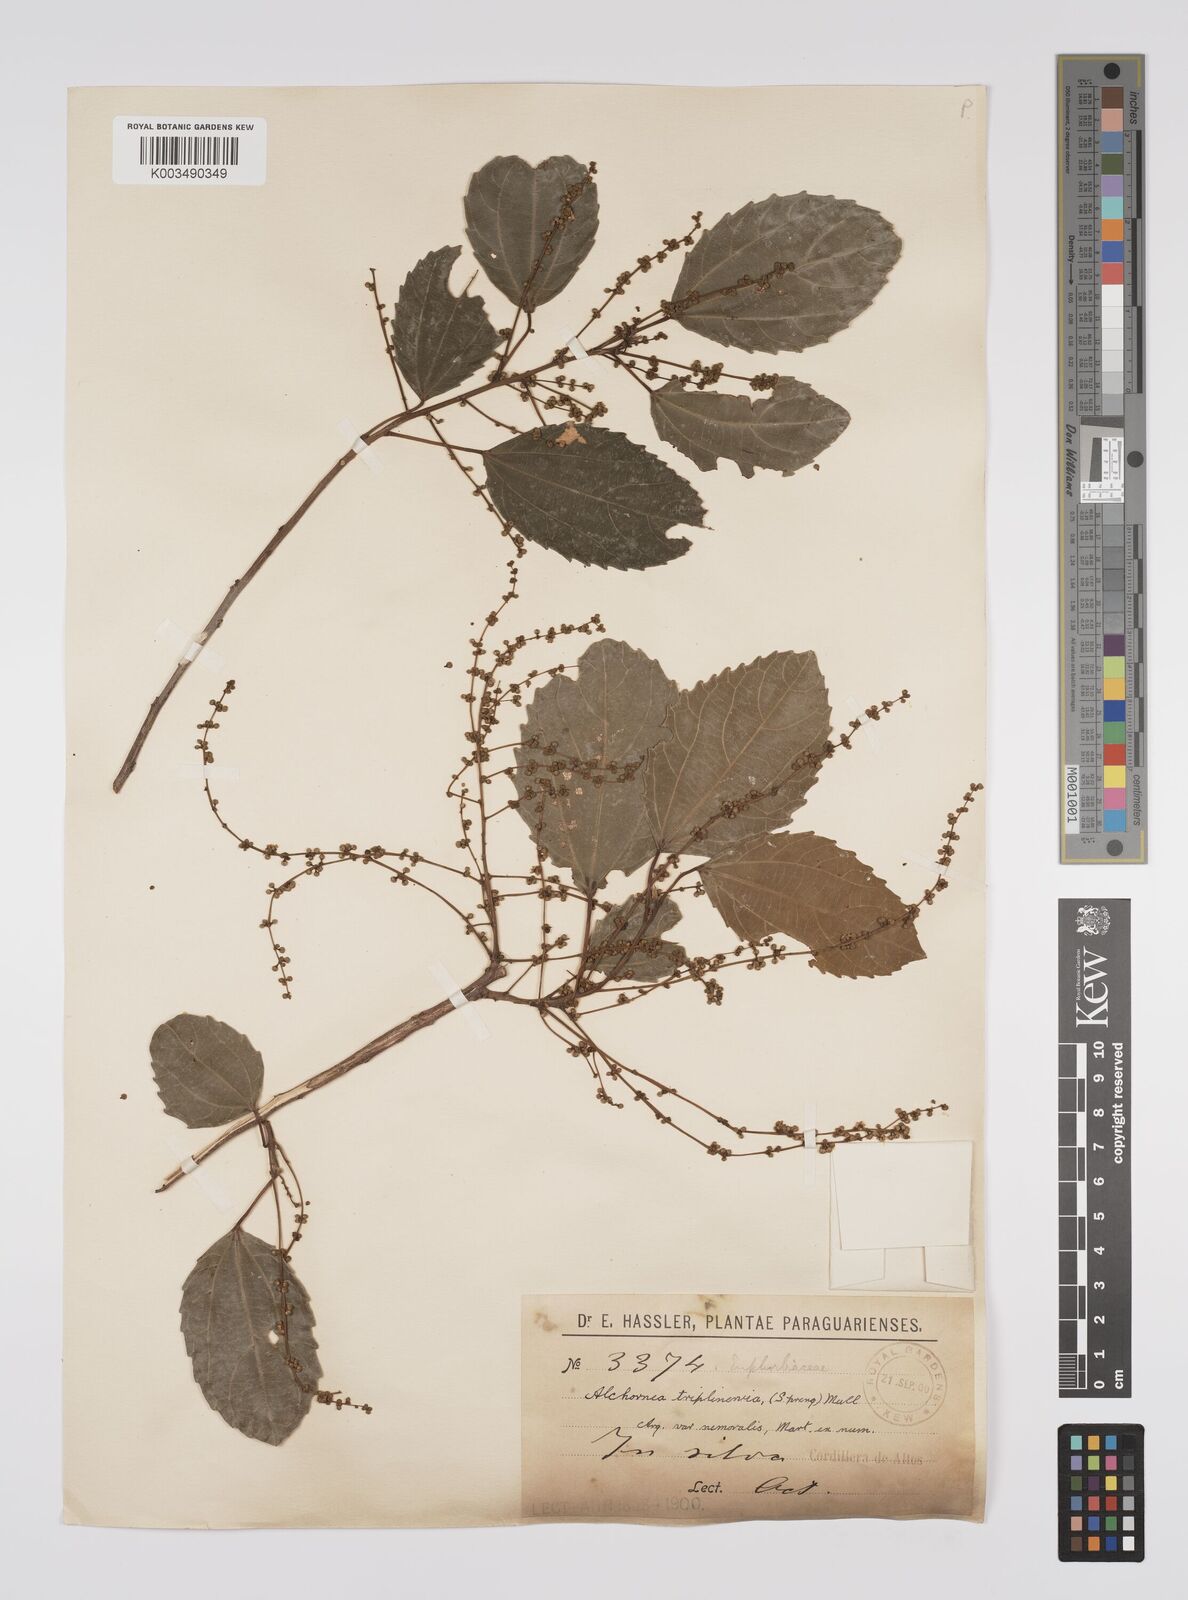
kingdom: Plantae
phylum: Tracheophyta
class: Magnoliopsida
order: Malpighiales
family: Euphorbiaceae
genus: Alchornea
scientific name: Alchornea triplinervia
